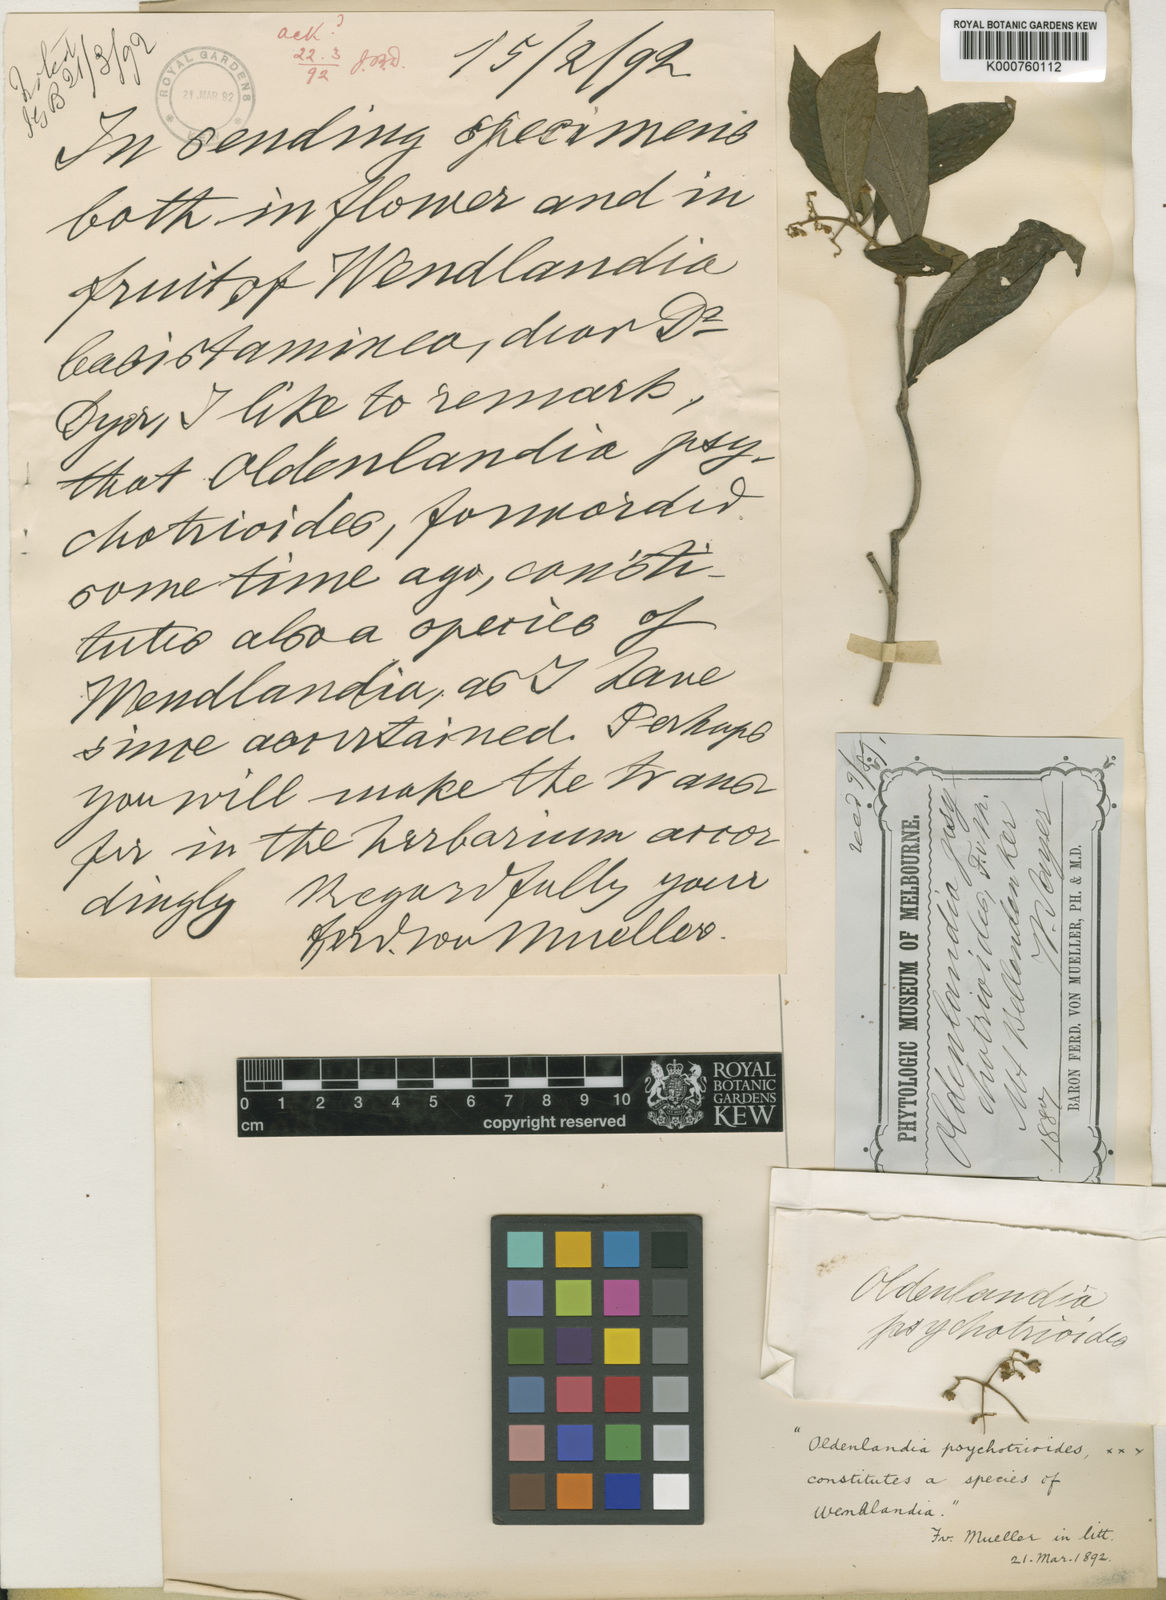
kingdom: Plantae
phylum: Tracheophyta
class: Magnoliopsida
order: Gentianales
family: Rubiaceae
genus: Wendlandia
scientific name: Wendlandia psychotrioides
